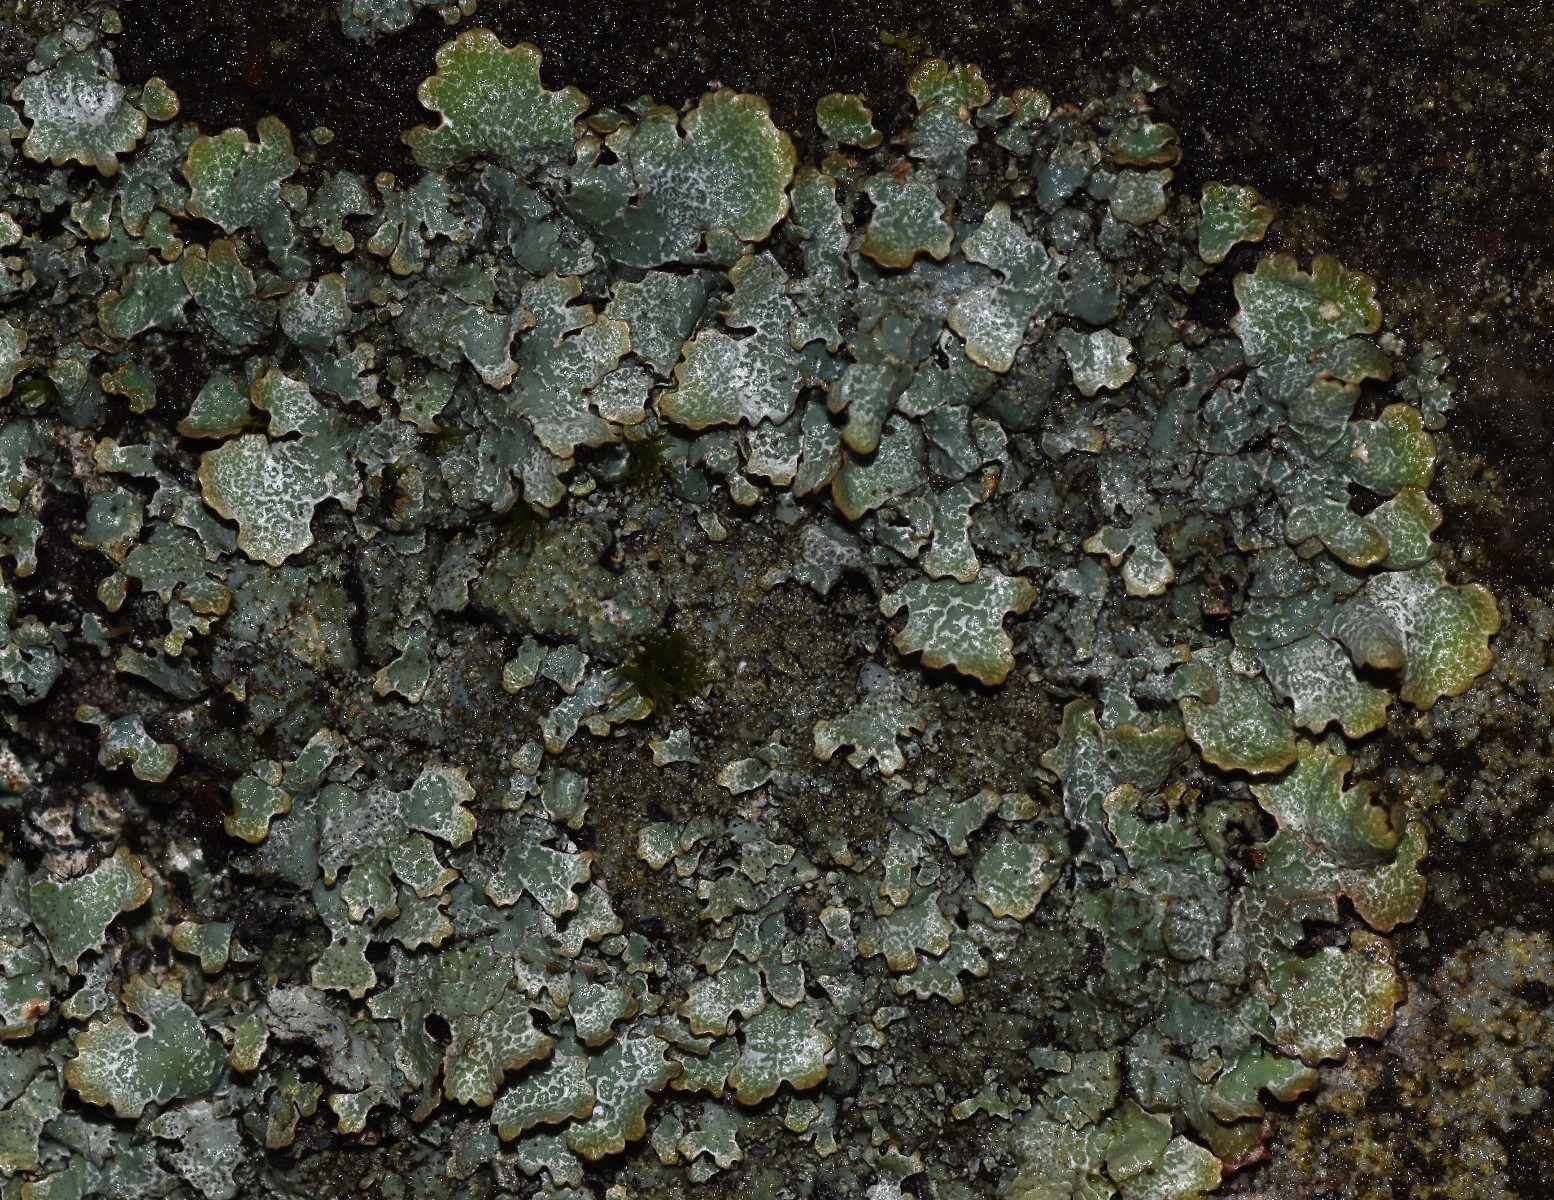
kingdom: Fungi
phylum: Ascomycota
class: Lecanoromycetes
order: Lecanorales
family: Parmeliaceae
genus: Parmelia
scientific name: Parmelia saxatilis
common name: farve-skållav
